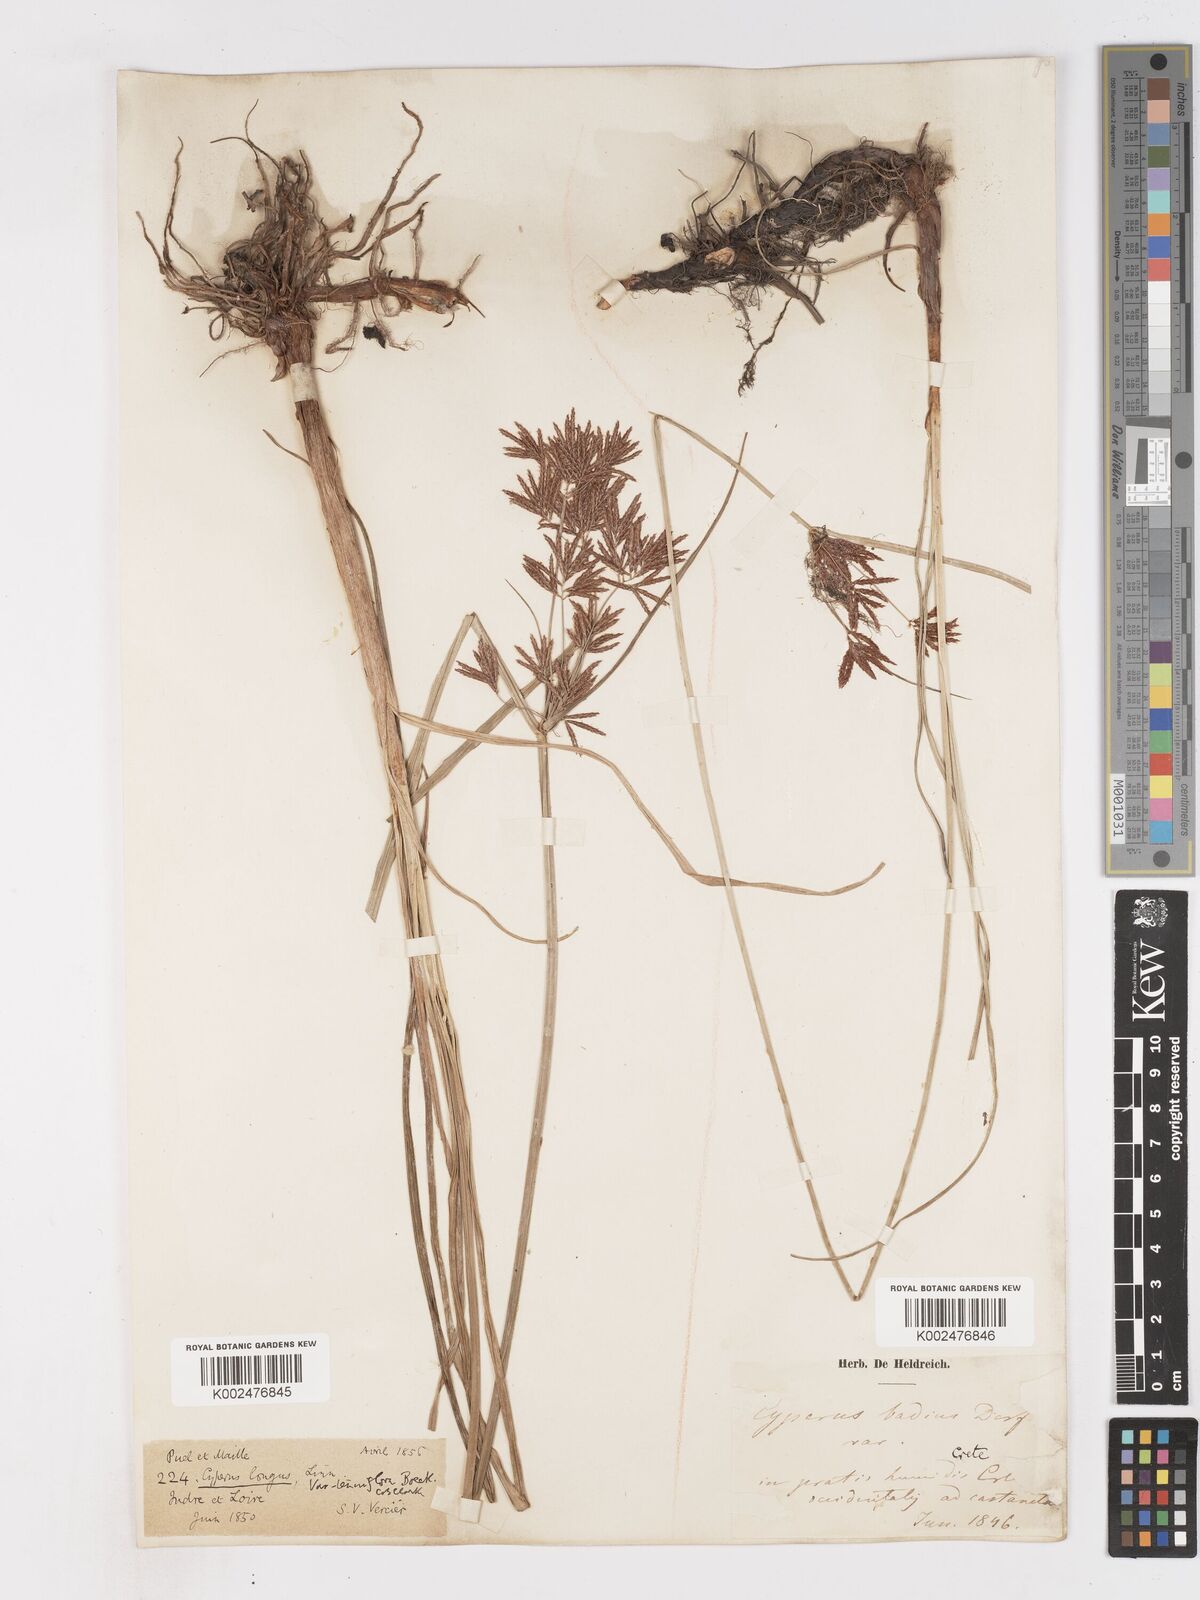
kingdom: Plantae
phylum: Tracheophyta
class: Liliopsida
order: Poales
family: Cyperaceae
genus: Cyperus
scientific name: Cyperus longus
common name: Galingale
